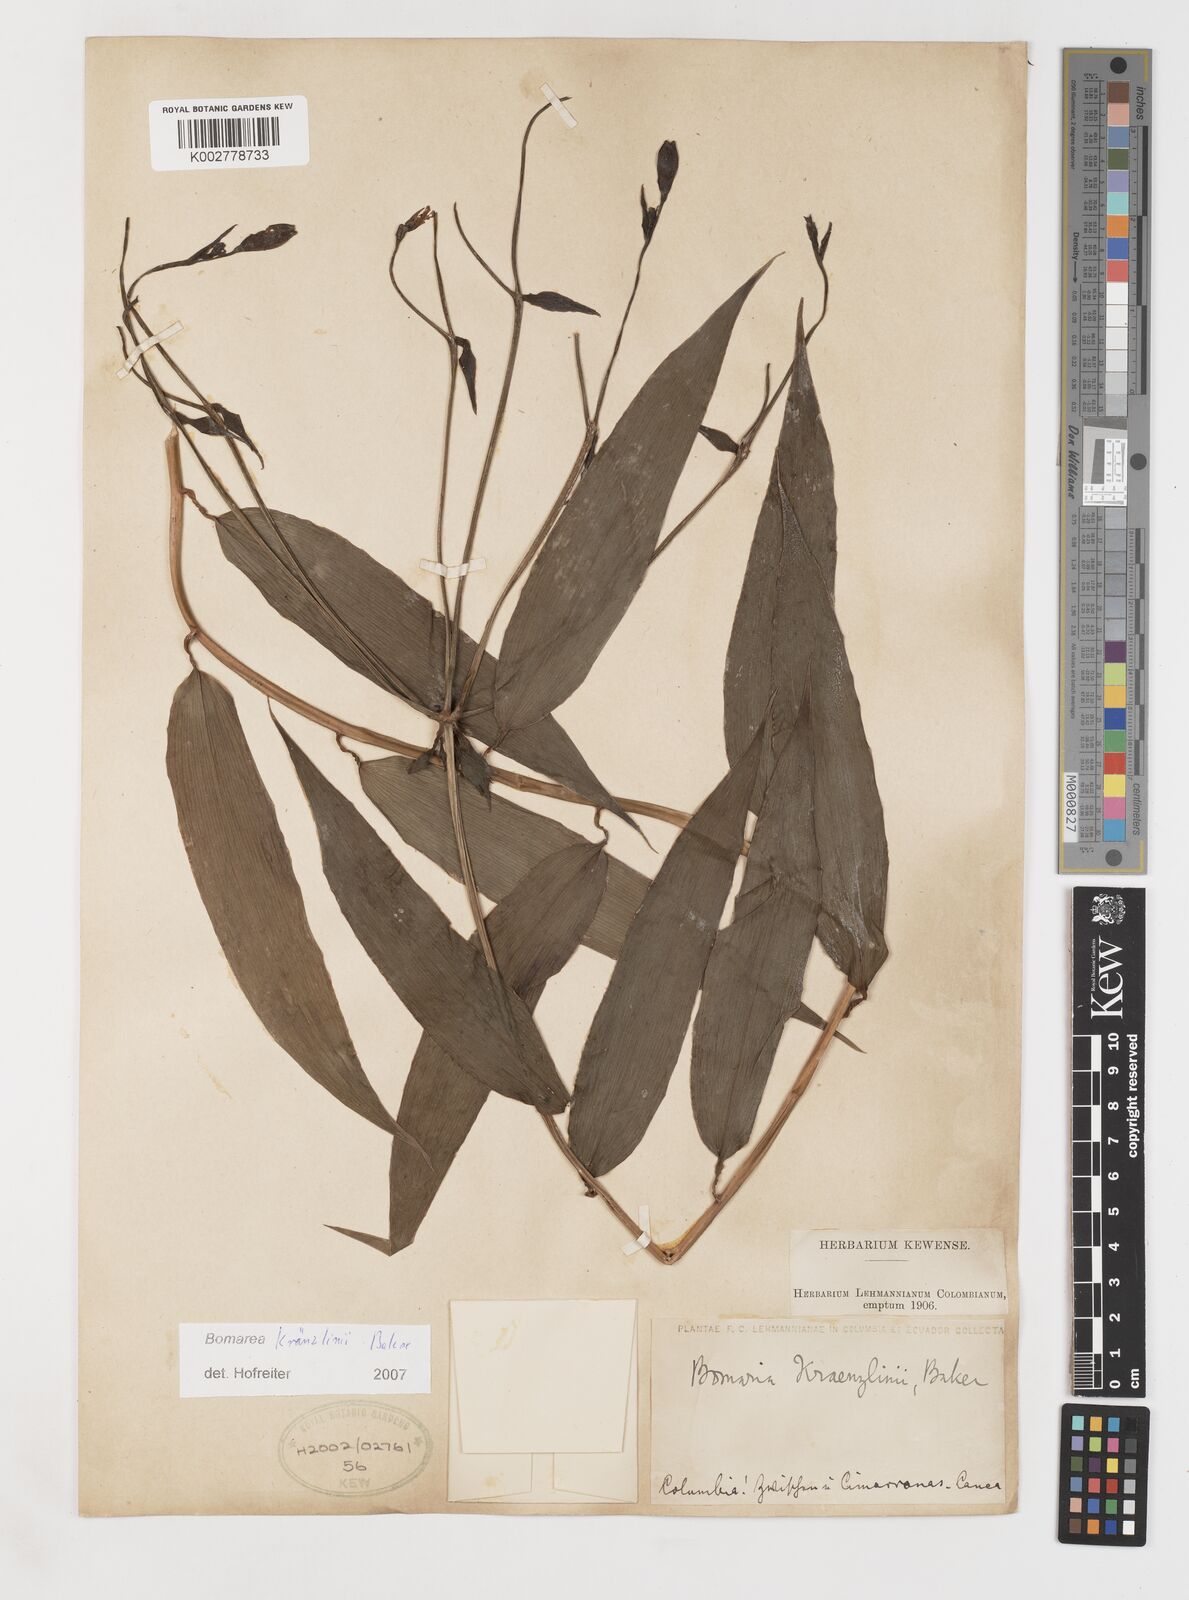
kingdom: Plantae
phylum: Tracheophyta
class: Liliopsida
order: Liliales
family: Alstroemeriaceae
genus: Bomarea
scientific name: Bomarea kraenzlinii
